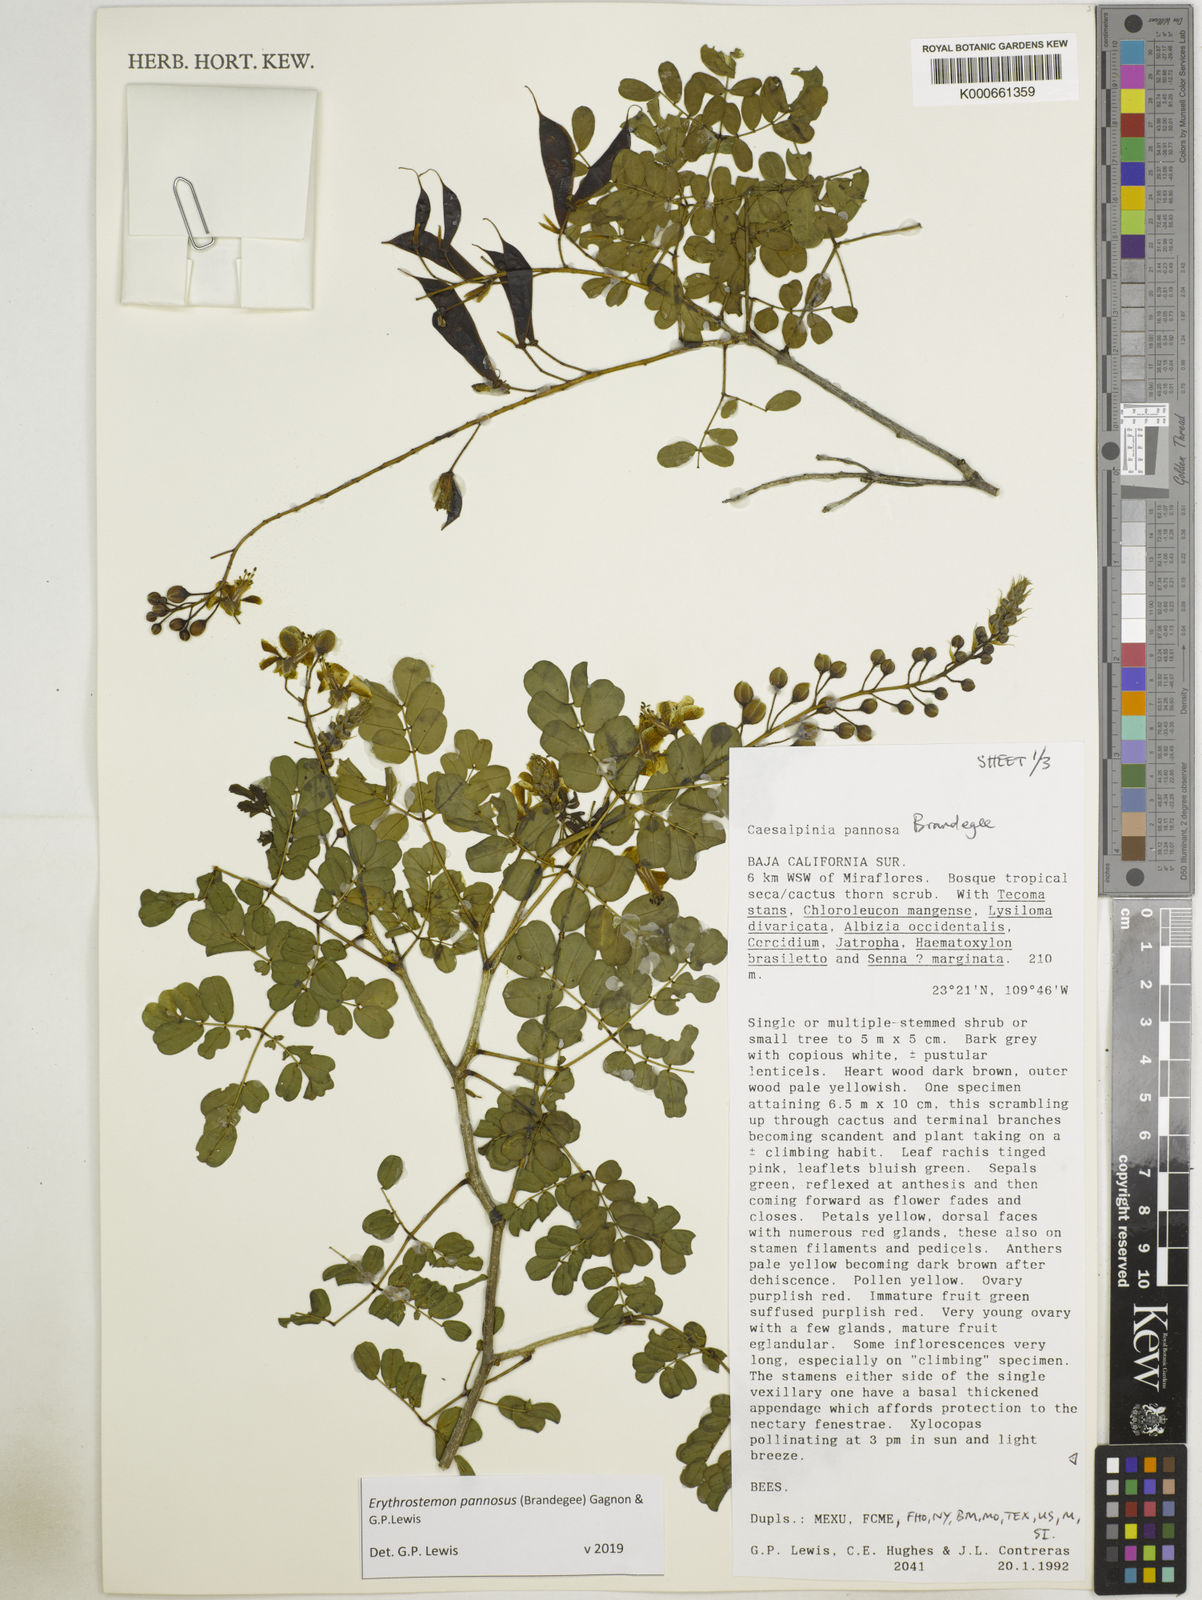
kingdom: Plantae
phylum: Tracheophyta
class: Magnoliopsida
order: Fabales
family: Fabaceae
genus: Erythrostemon
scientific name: Erythrostemon pannosus
